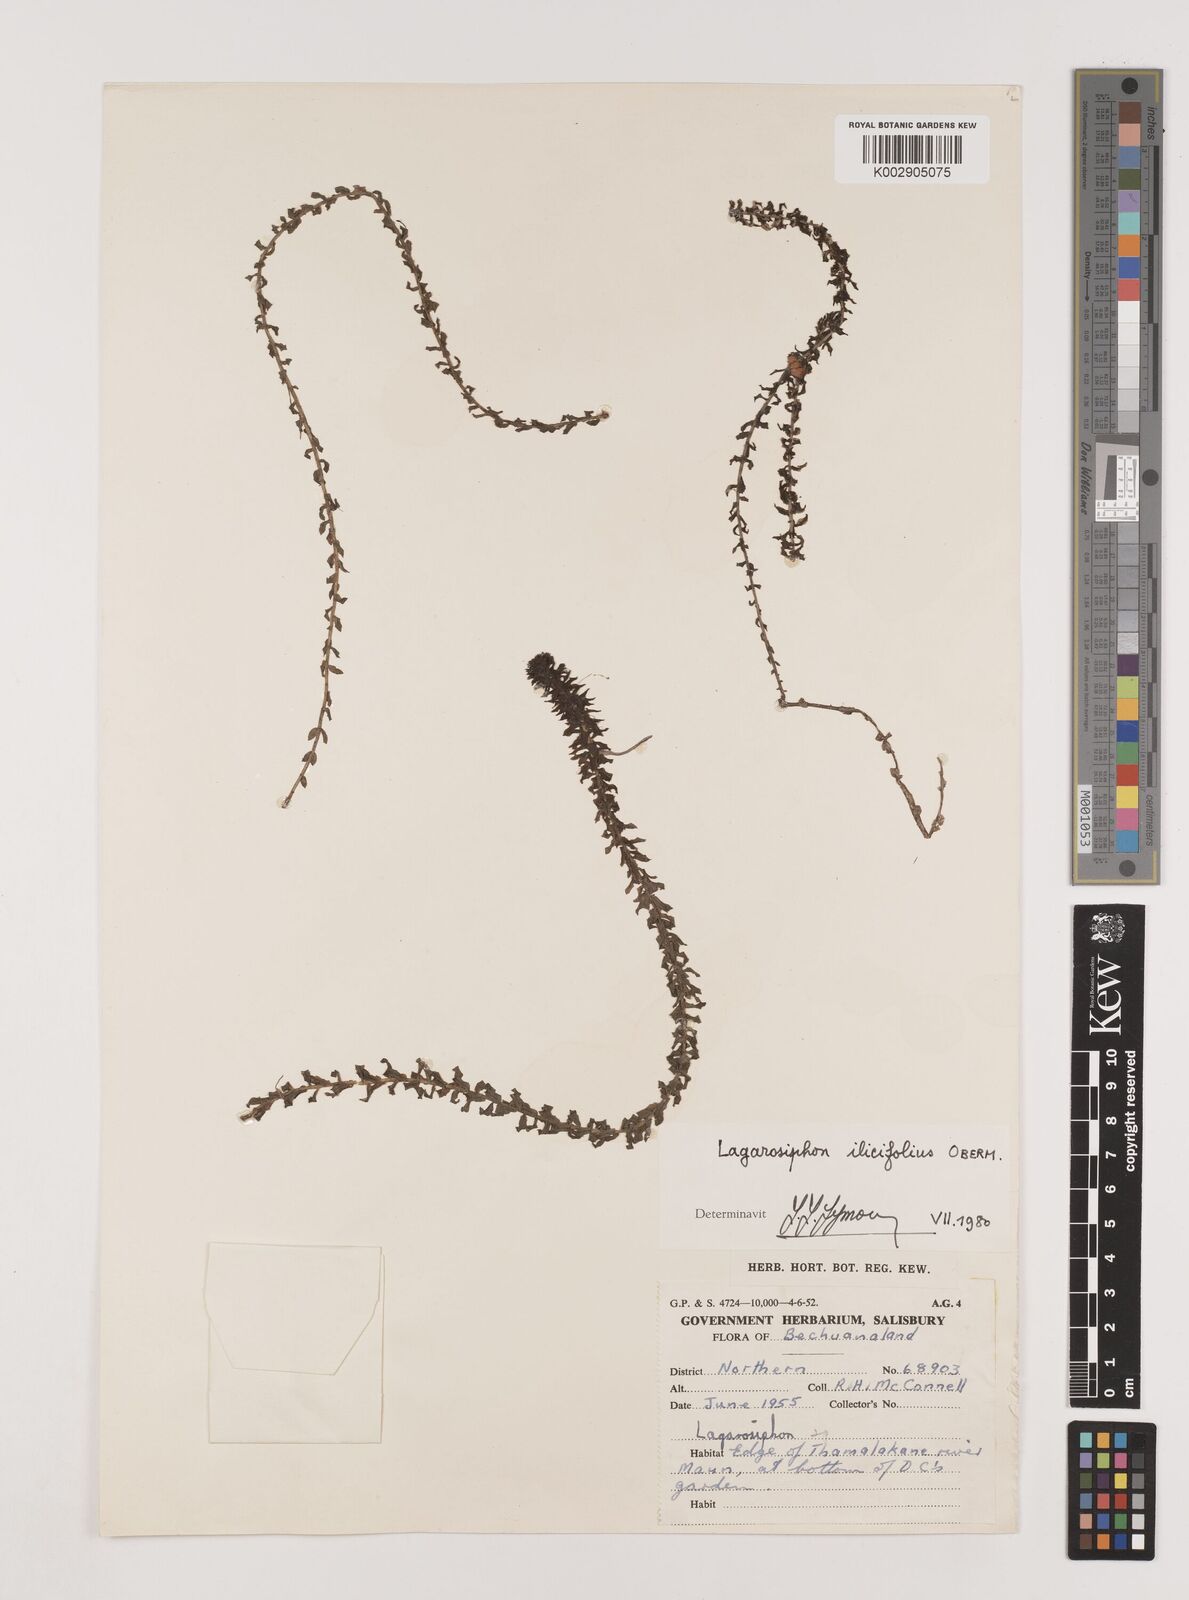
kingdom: Plantae
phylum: Tracheophyta
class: Liliopsida
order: Alismatales
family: Hydrocharitaceae
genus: Lagarosiphon
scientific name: Lagarosiphon ilicifolius
